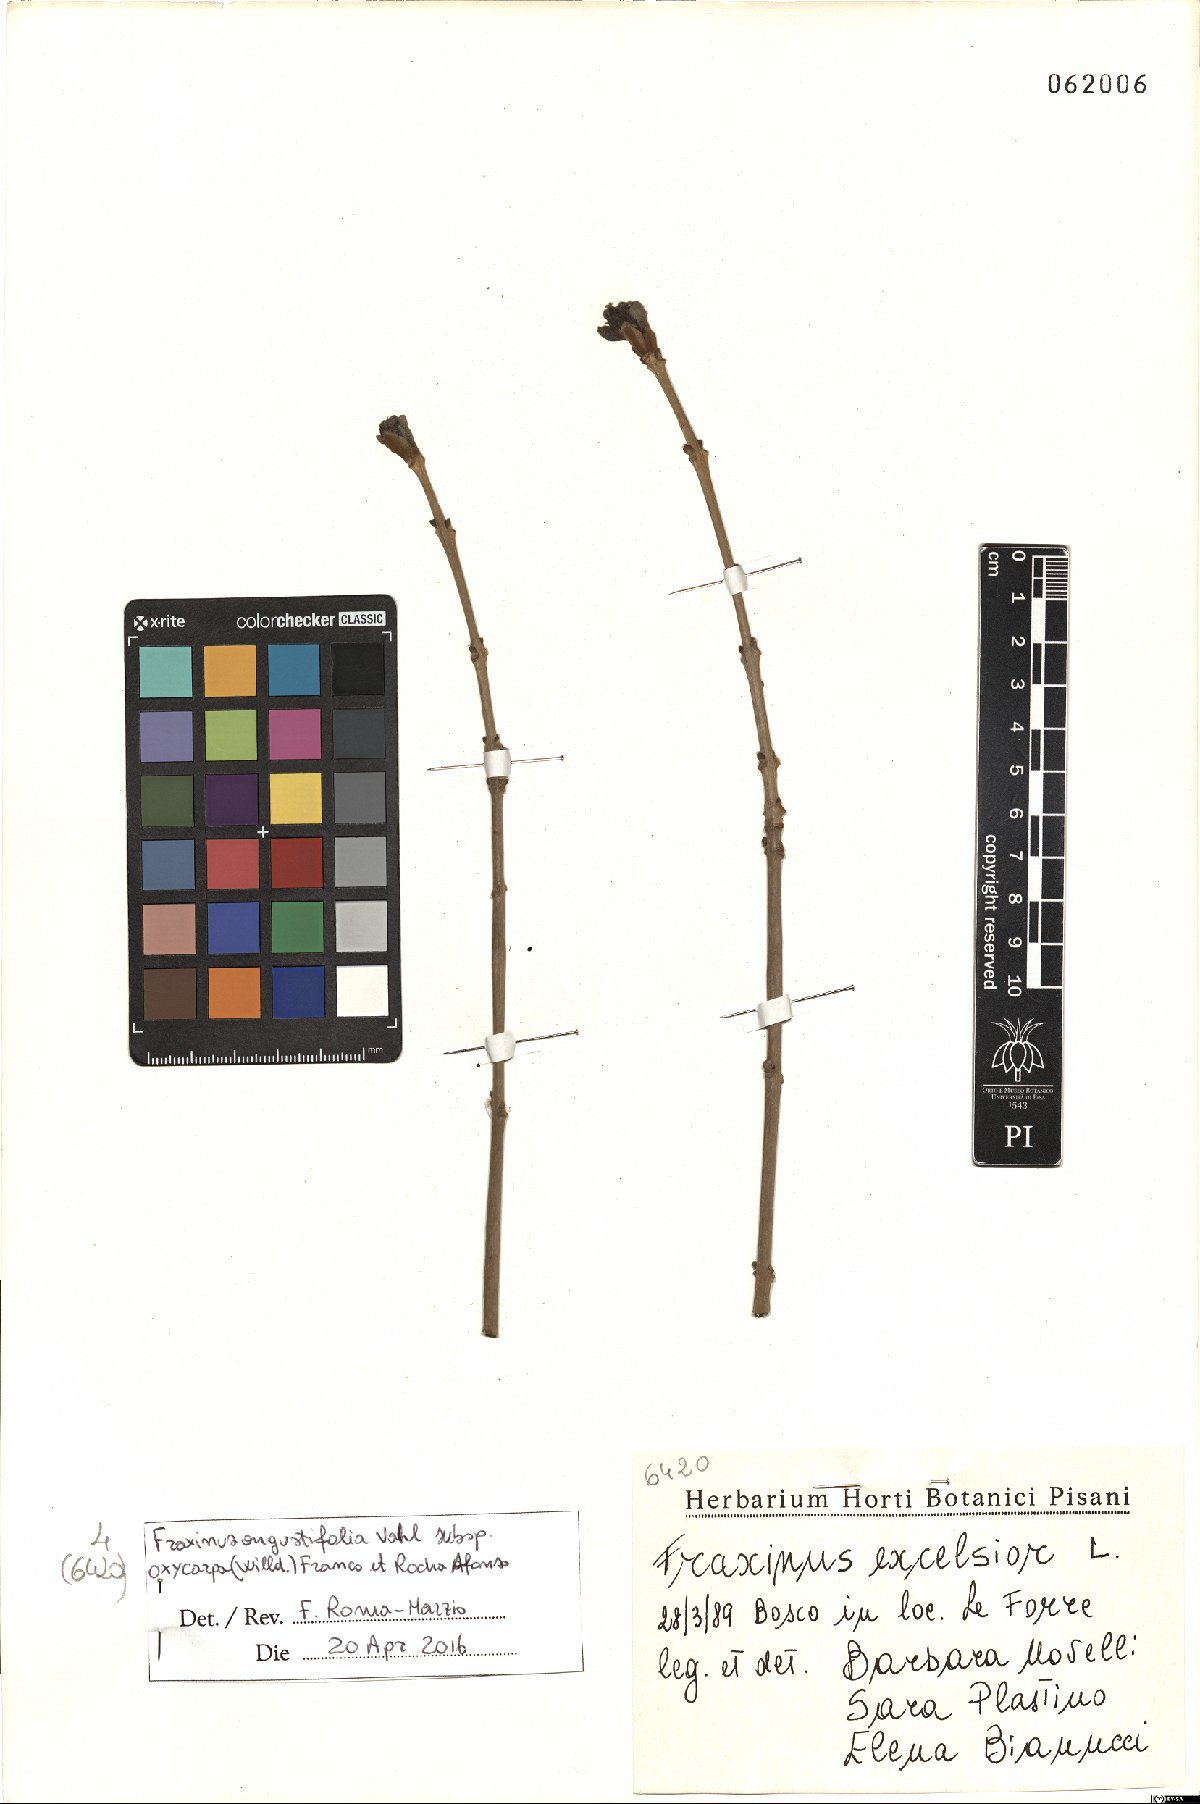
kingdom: Plantae
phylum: Tracheophyta
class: Magnoliopsida
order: Lamiales
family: Oleaceae
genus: Fraxinus
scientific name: Fraxinus angustifolia
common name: Narrow-leafed ash
